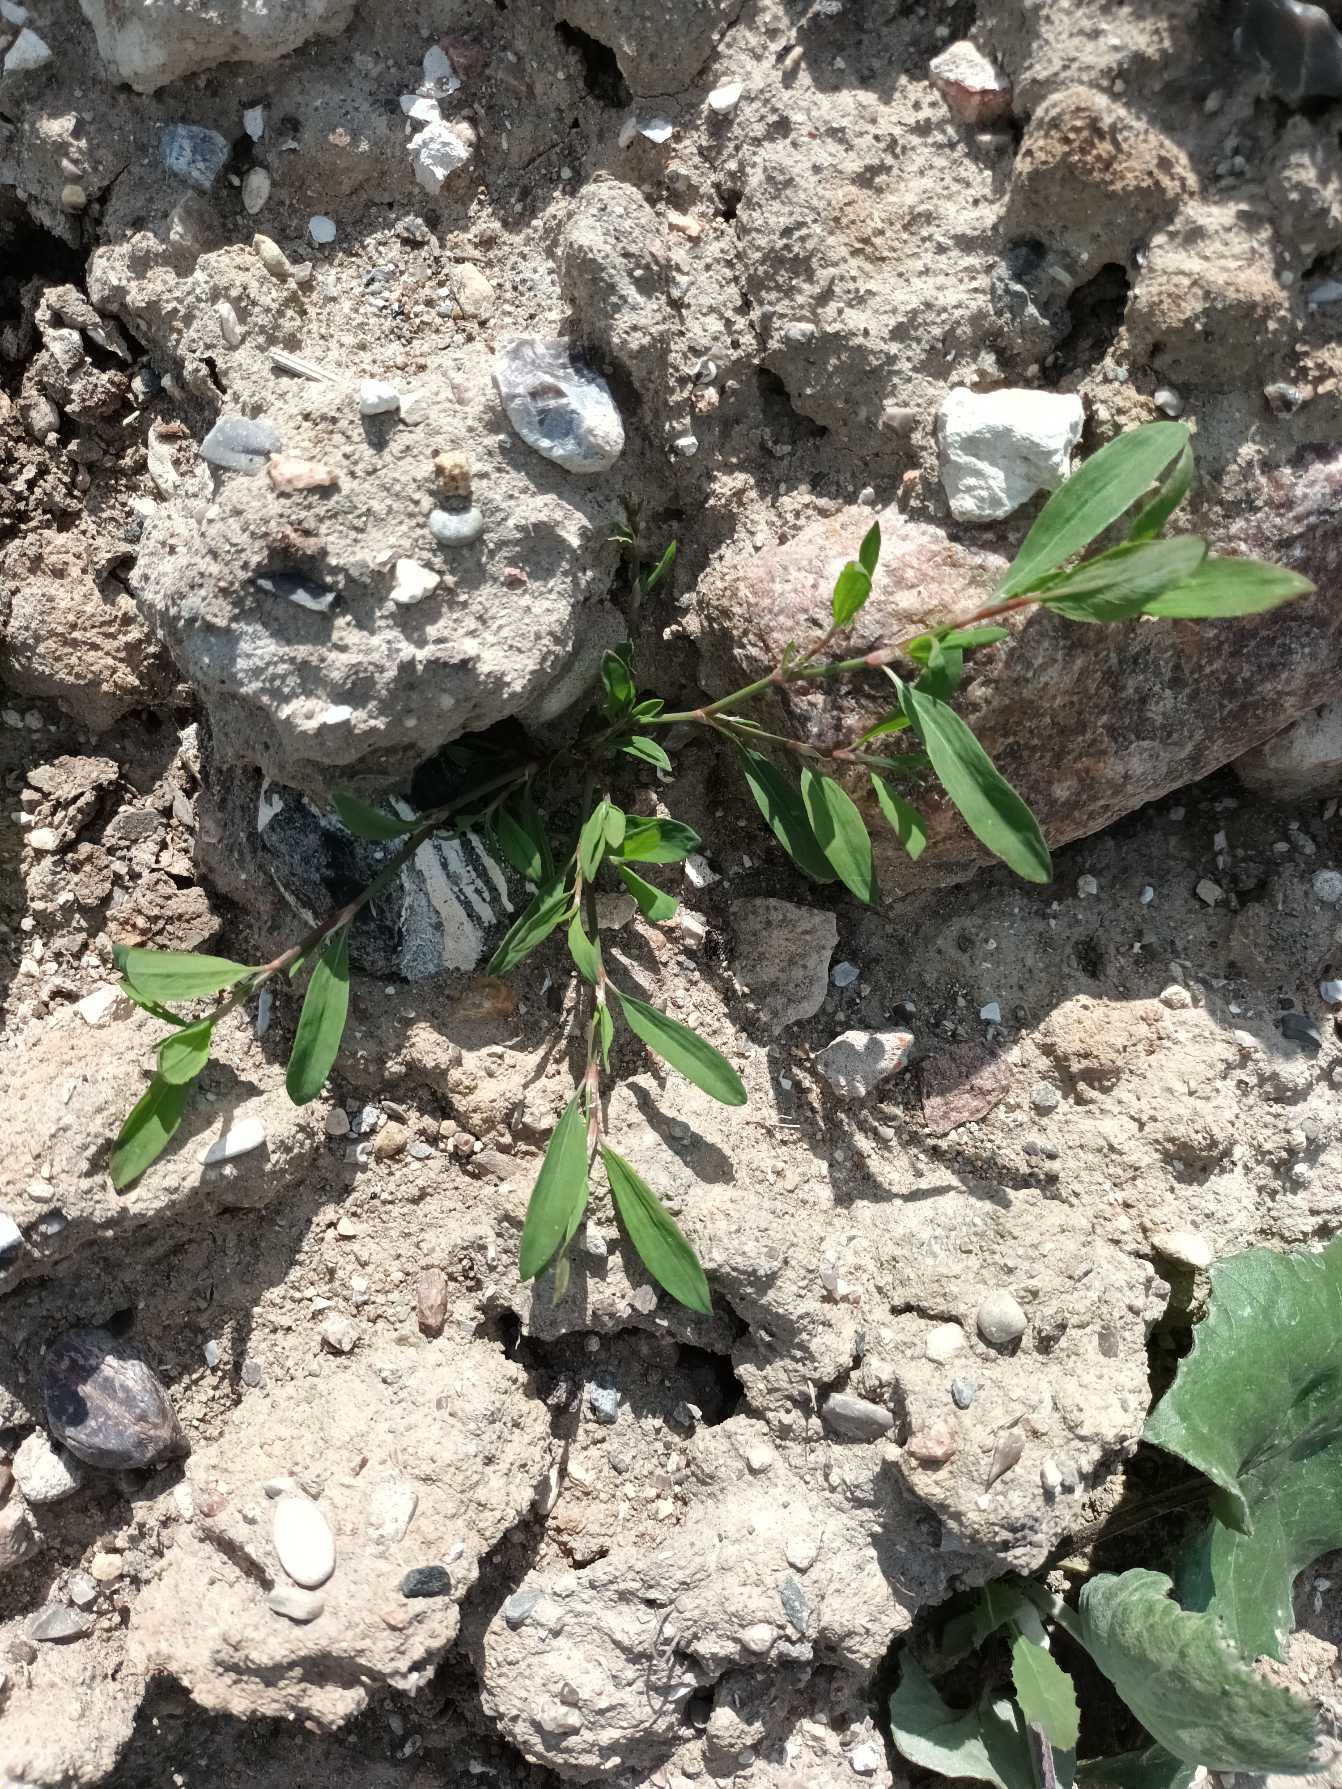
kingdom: Plantae
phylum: Tracheophyta
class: Magnoliopsida
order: Caryophyllales
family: Polygonaceae
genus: Polygonum
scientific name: Polygonum aviculare
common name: Vej-pileurt (underart)
